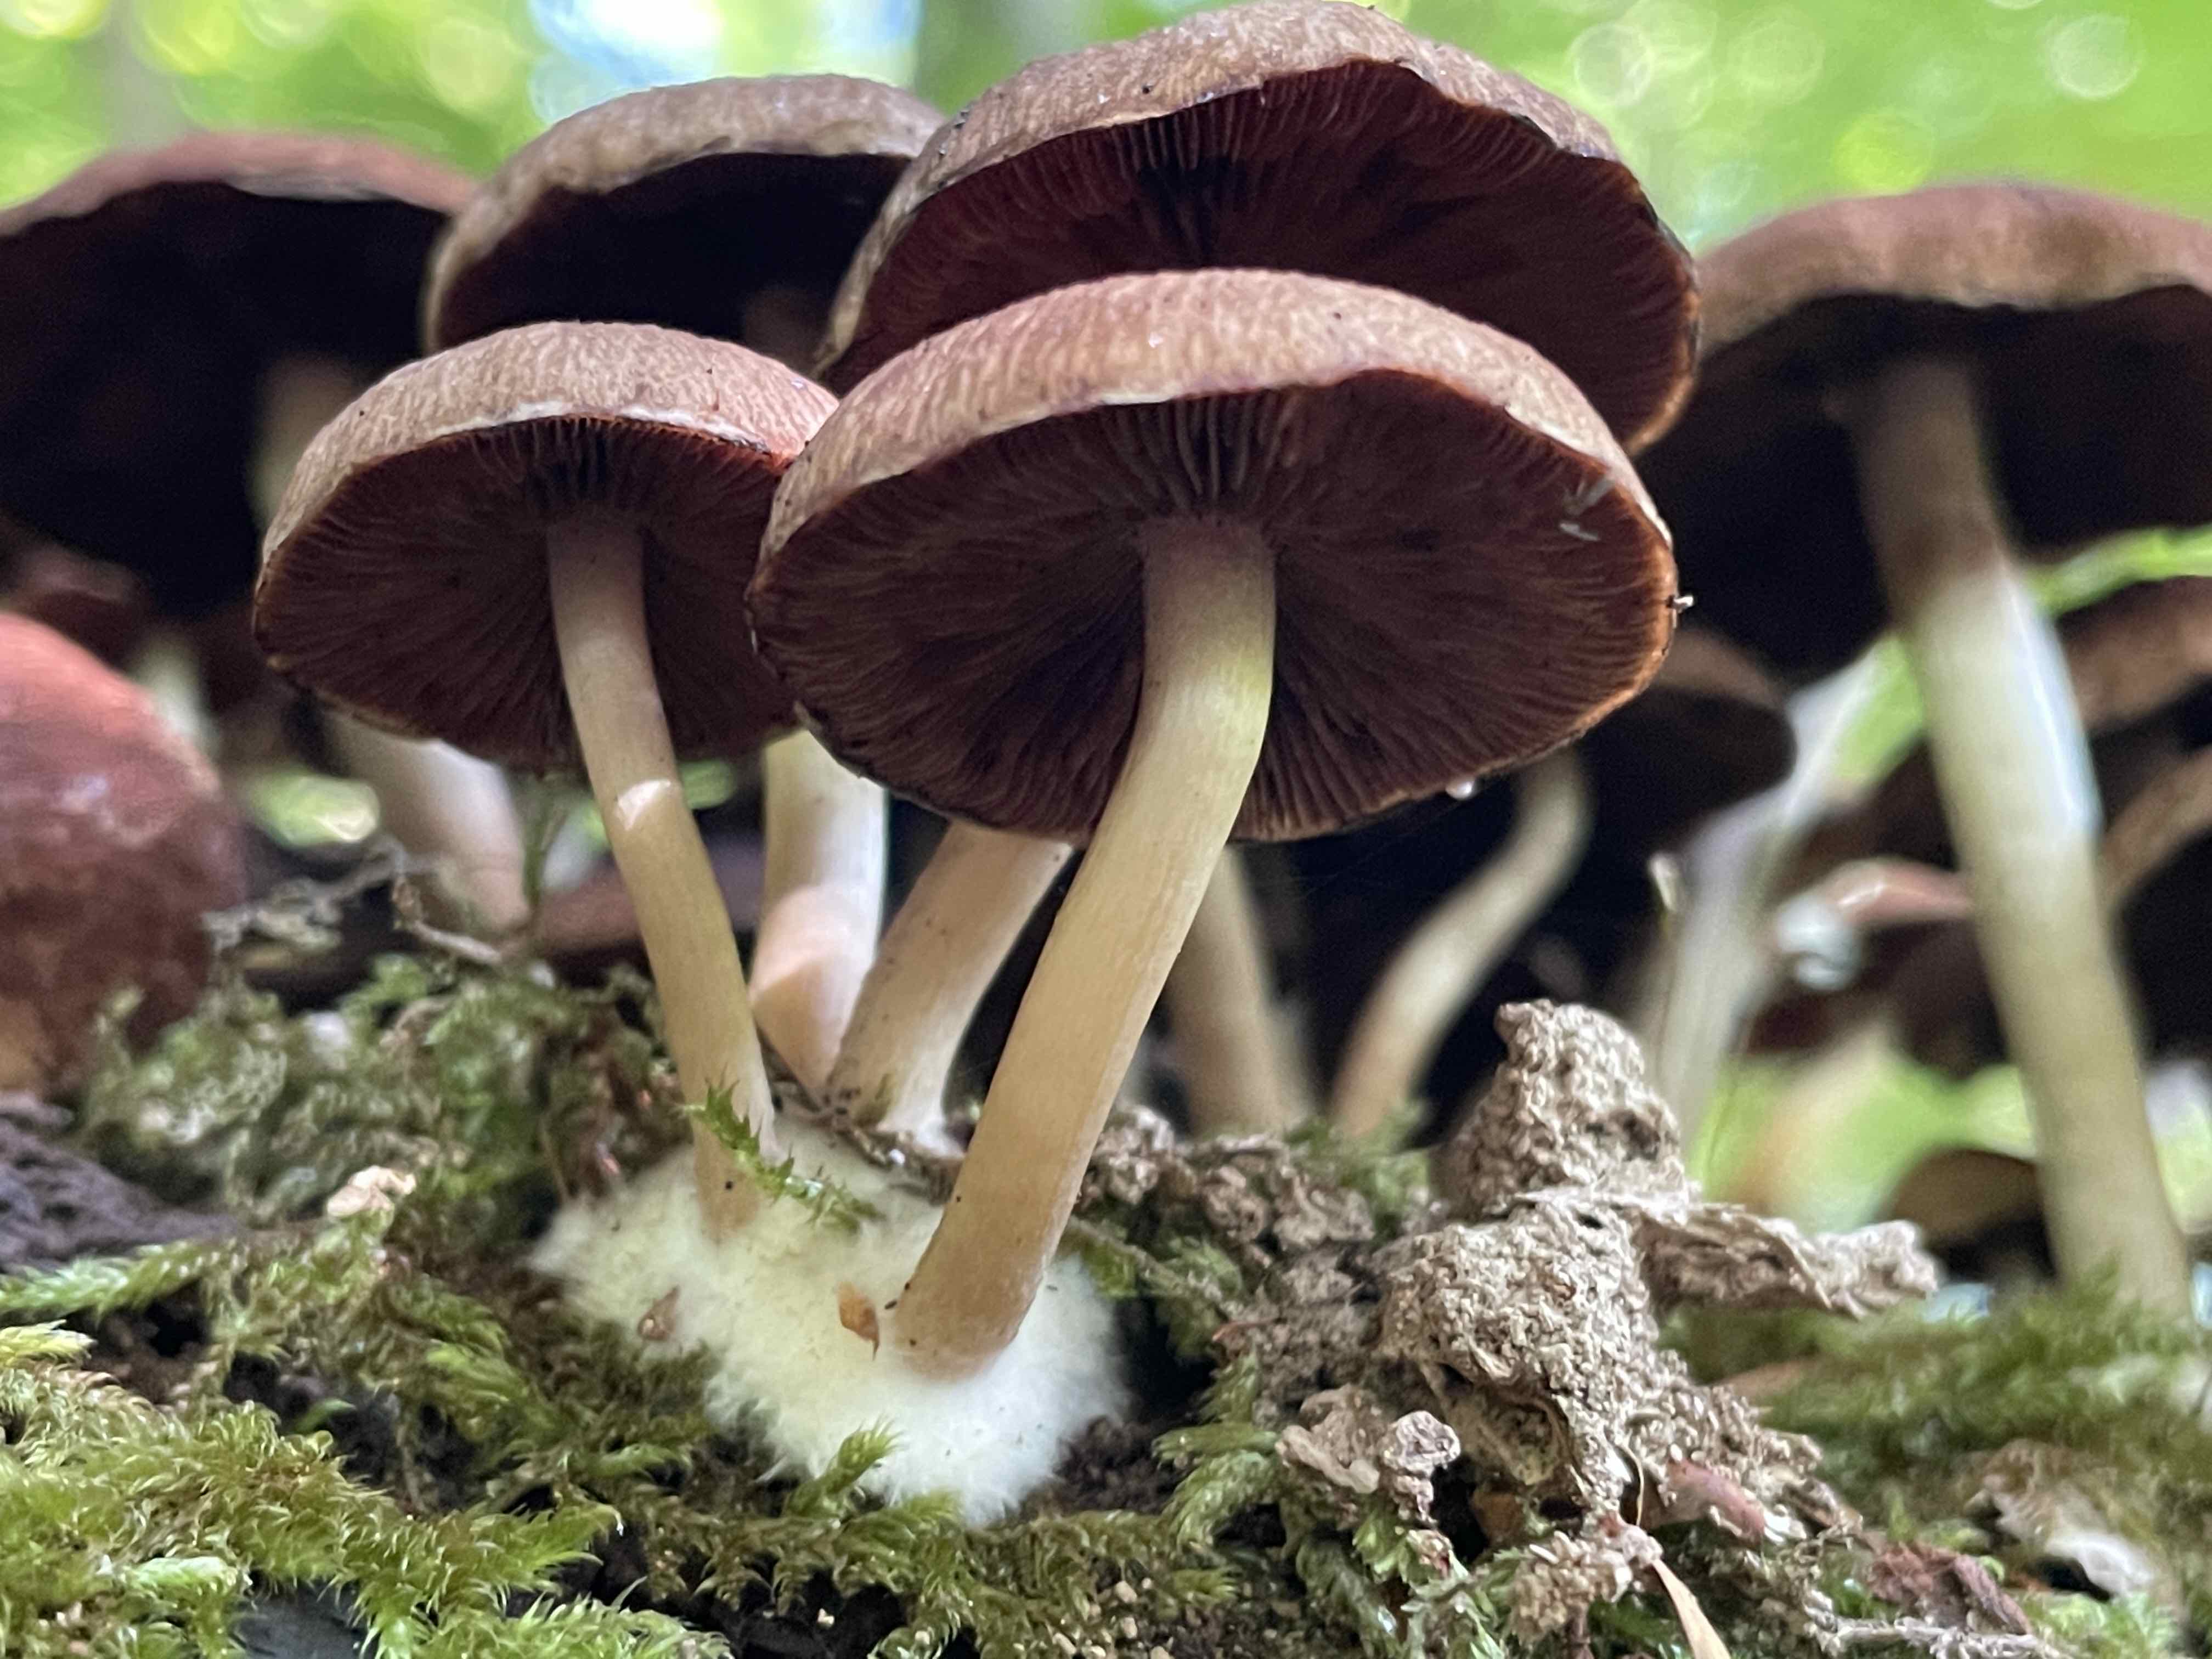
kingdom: Fungi
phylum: Basidiomycota
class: Agaricomycetes
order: Agaricales
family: Psathyrellaceae
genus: Psathyrella
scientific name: Psathyrella piluliformis
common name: lysstokket mørkhat
